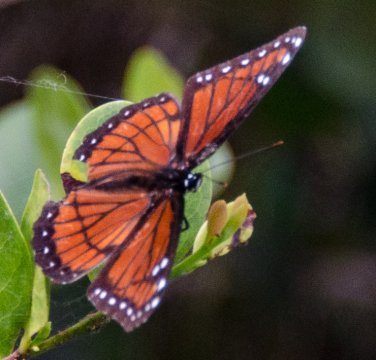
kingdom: Animalia
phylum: Arthropoda
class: Insecta
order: Lepidoptera
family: Nymphalidae
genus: Limenitis
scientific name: Limenitis archippus
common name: Viceroy
